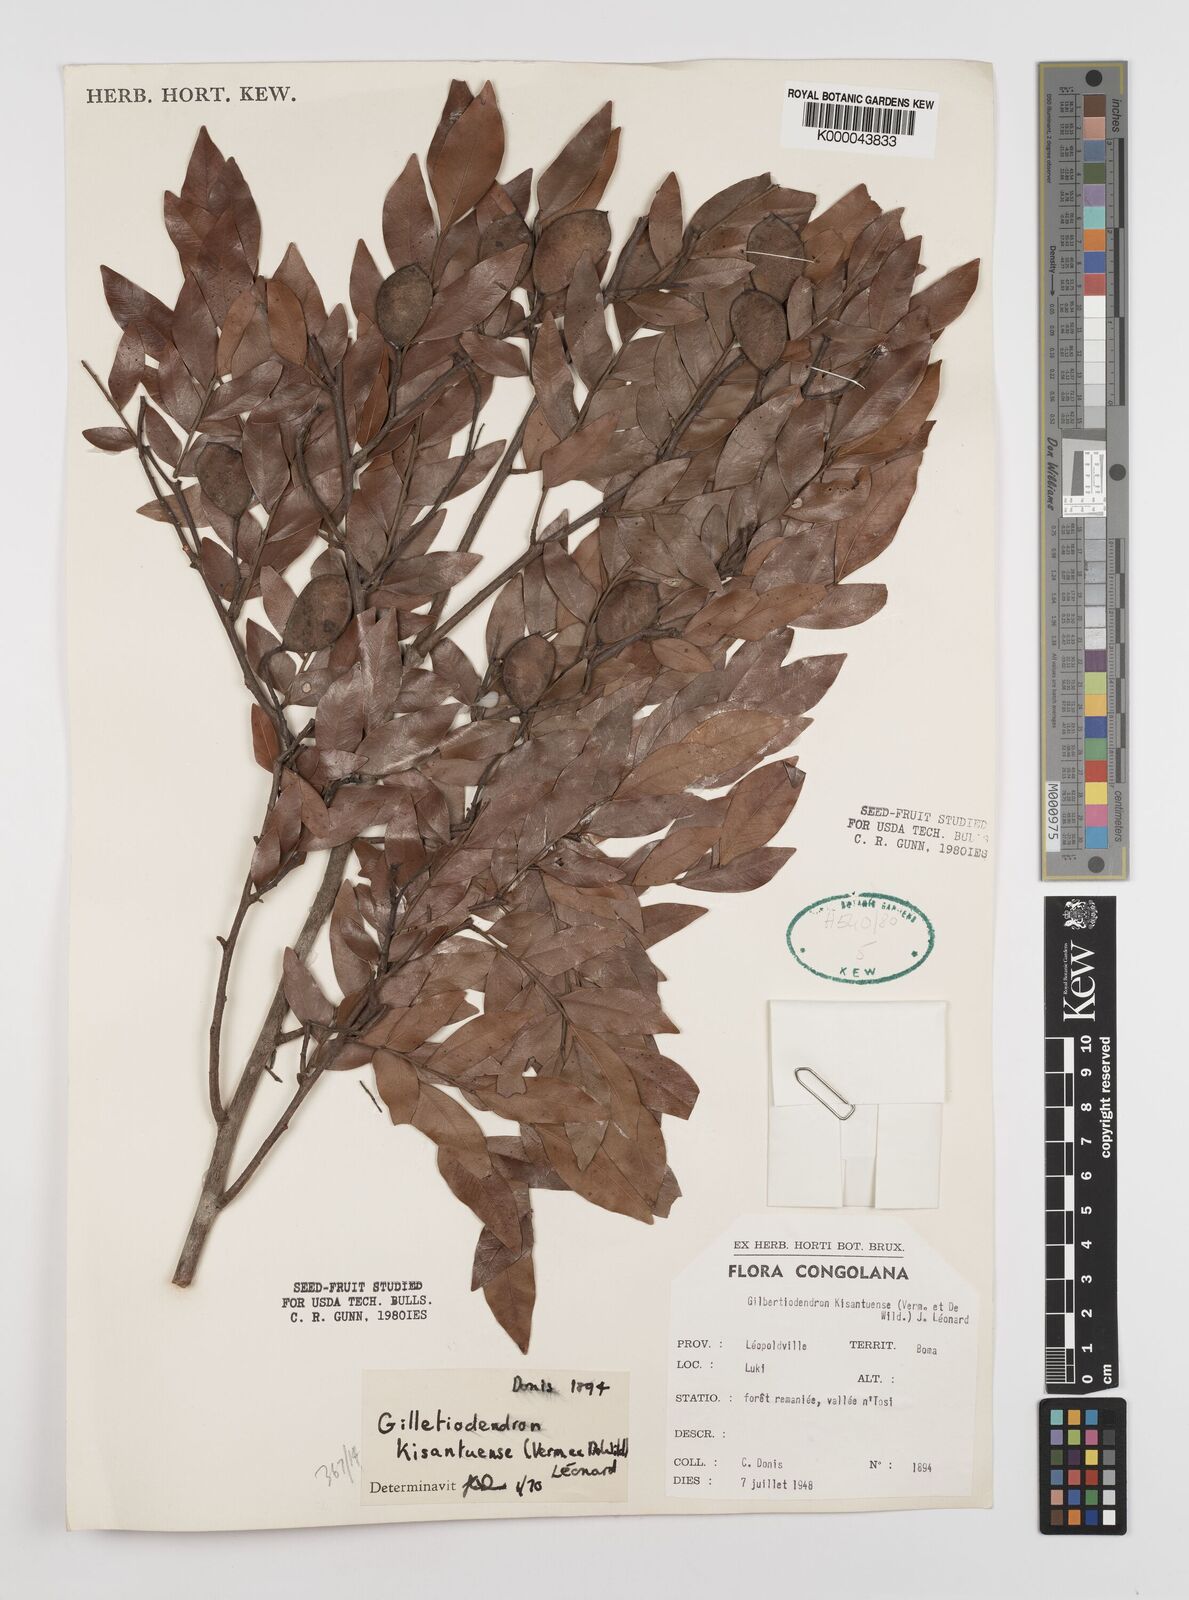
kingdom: Plantae
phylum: Tracheophyta
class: Magnoliopsida
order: Fabales
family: Fabaceae
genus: Guibourtia
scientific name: Guibourtia
